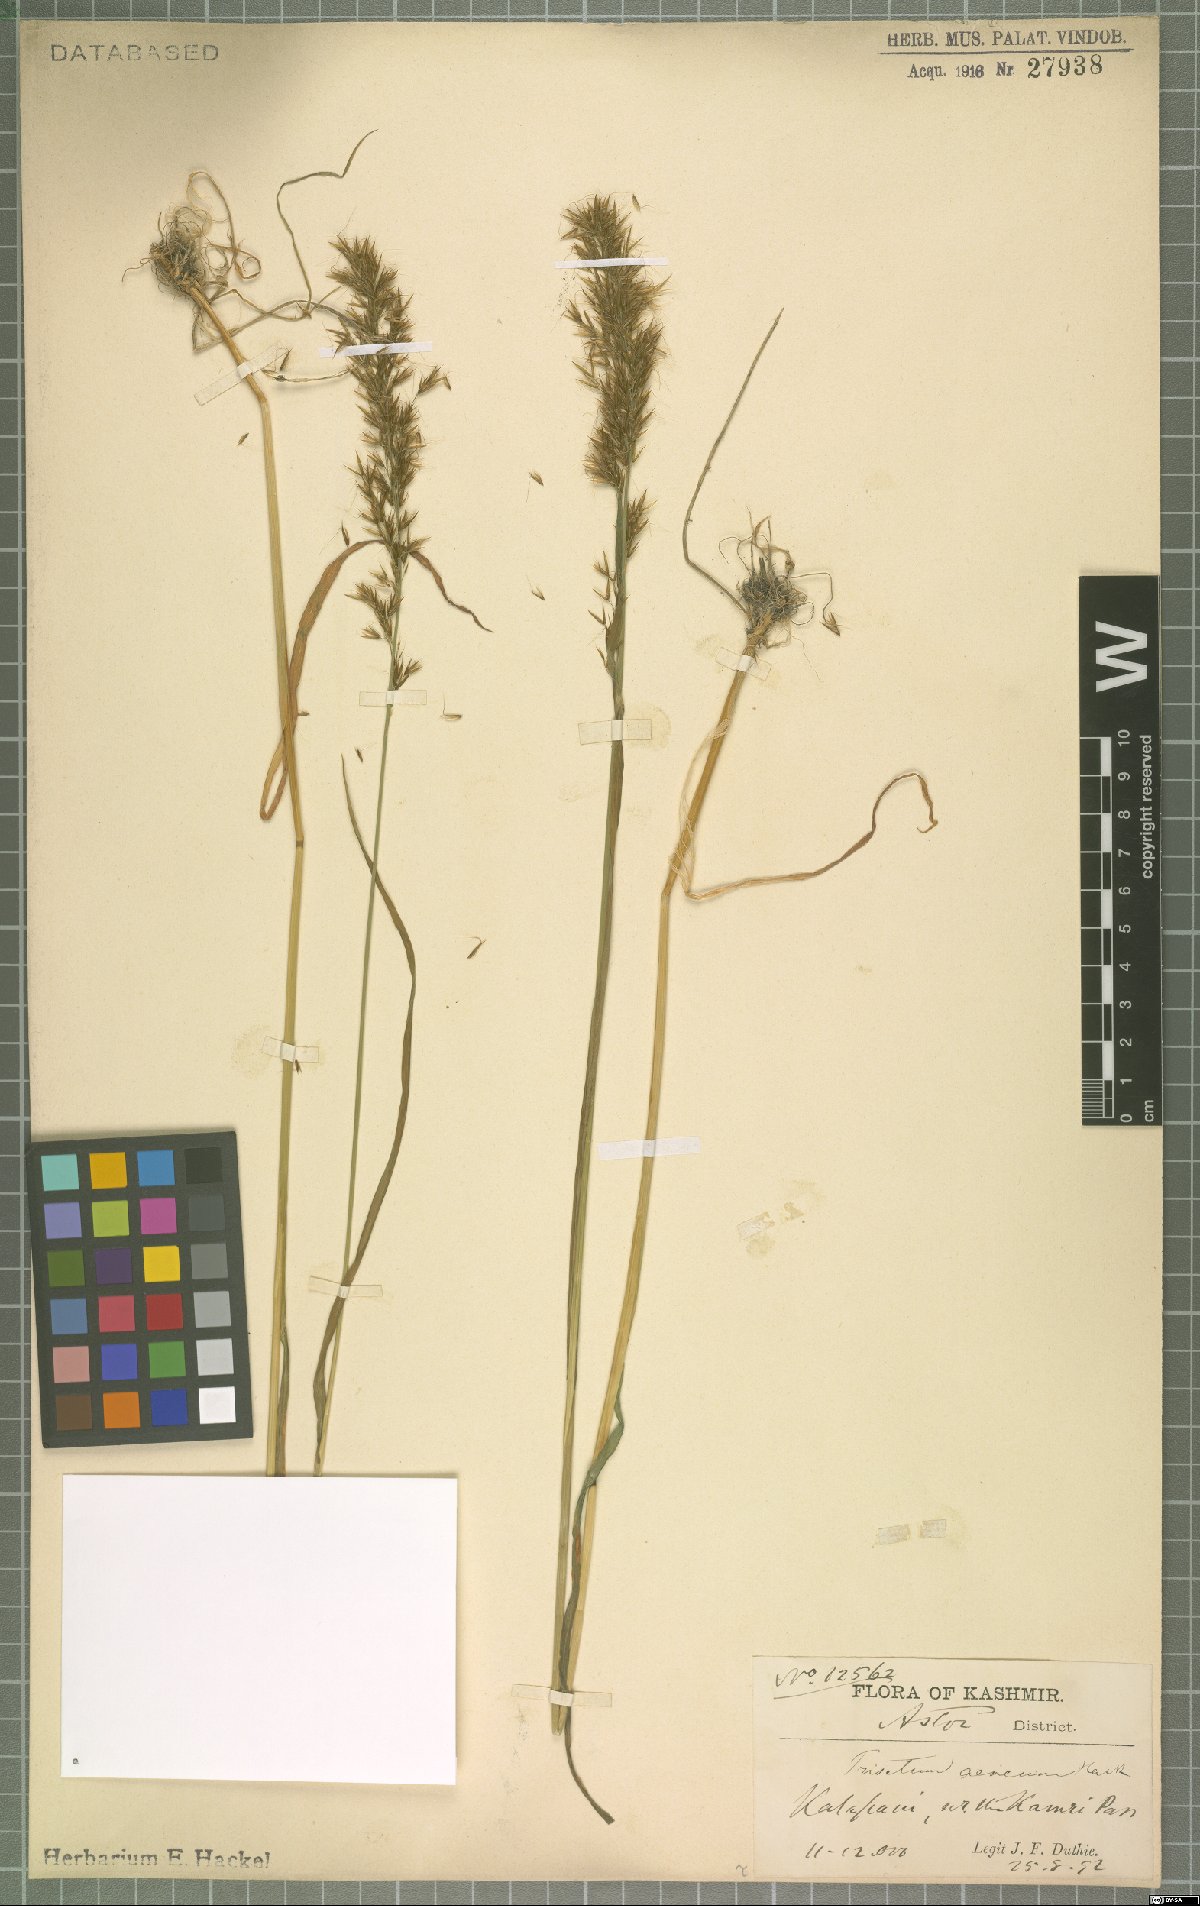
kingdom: Plantae
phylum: Tracheophyta
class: Liliopsida
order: Poales
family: Poaceae
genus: Sibirotrisetum
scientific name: Sibirotrisetum aeneum
